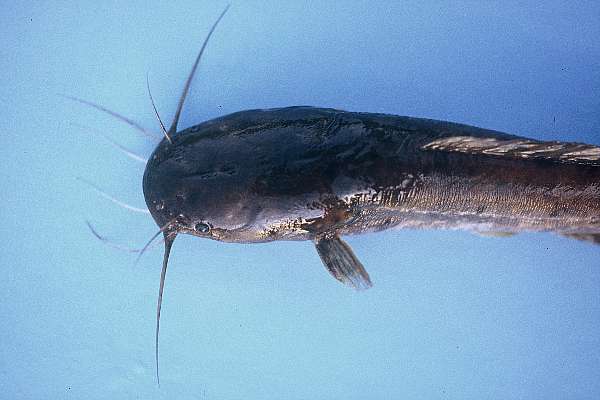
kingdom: Animalia
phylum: Chordata
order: Siluriformes
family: Clariidae
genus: Clarias
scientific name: Clarias stappersii
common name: Blotched catfish
